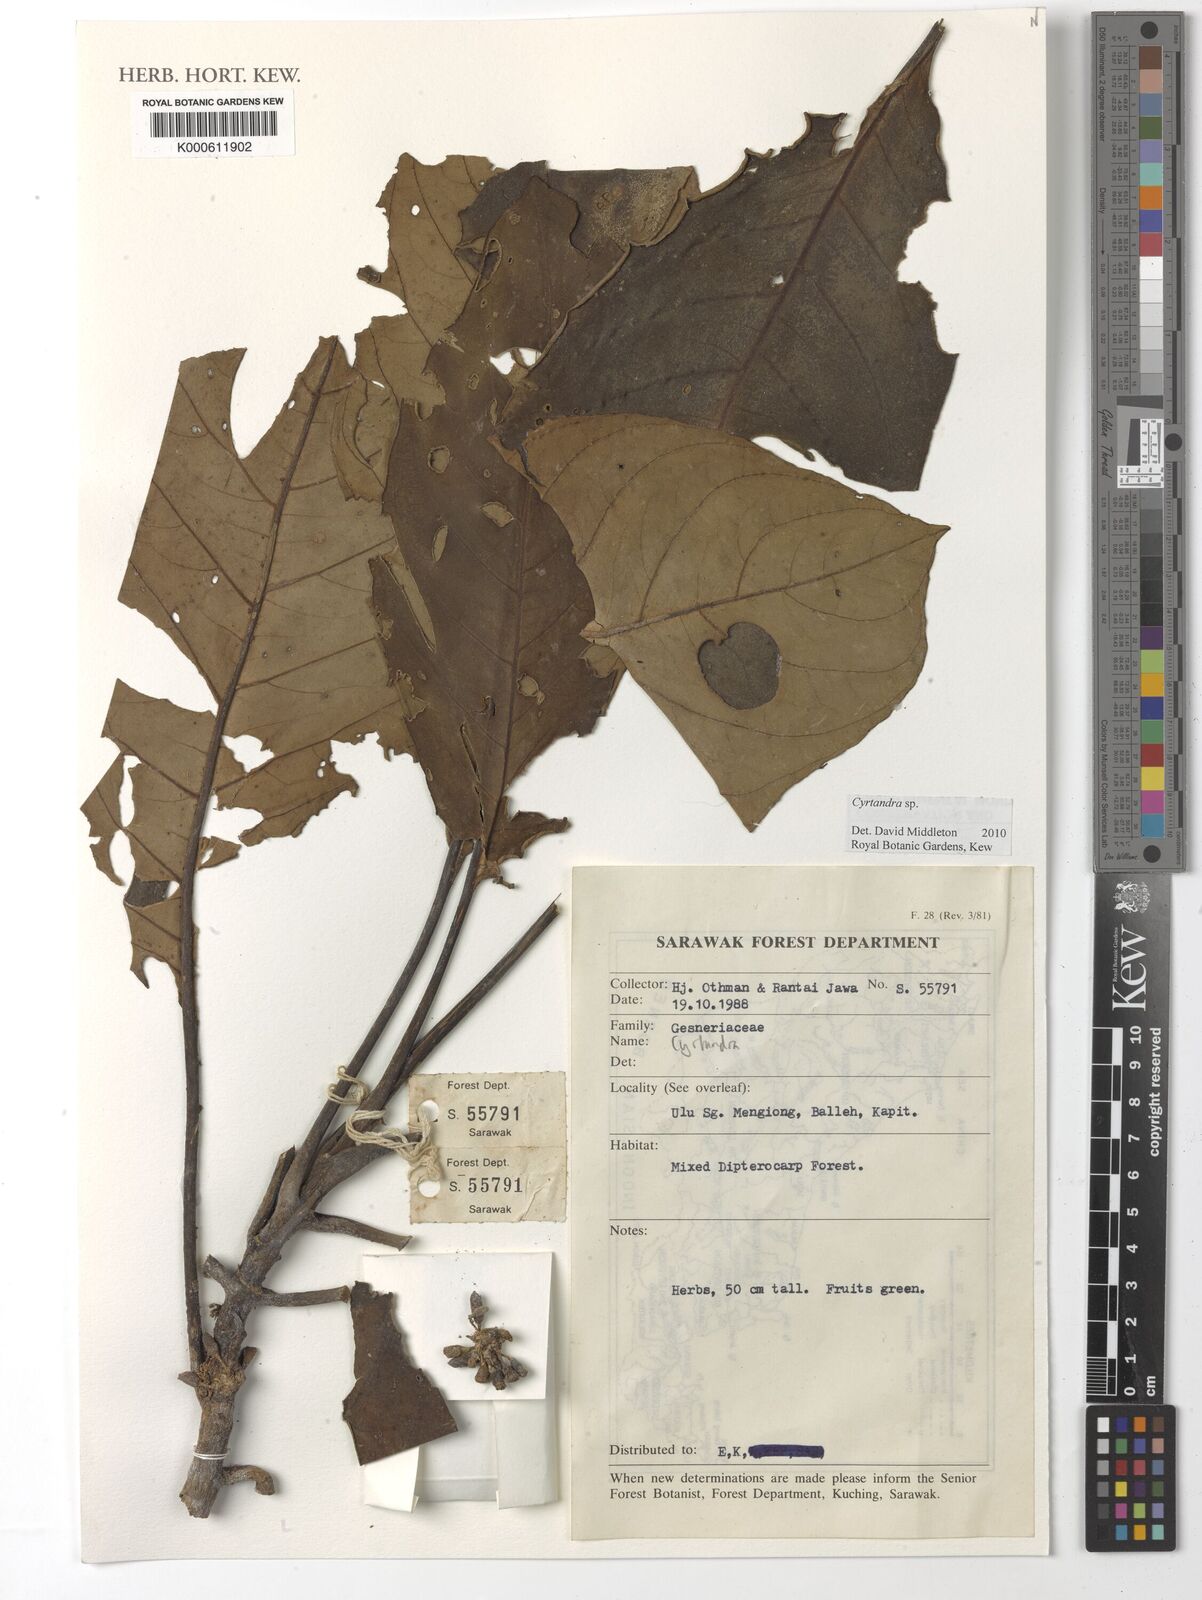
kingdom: Plantae
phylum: Tracheophyta
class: Magnoliopsida
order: Lamiales
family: Gesneriaceae
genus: Cyrtandra
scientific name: Cyrtandra
